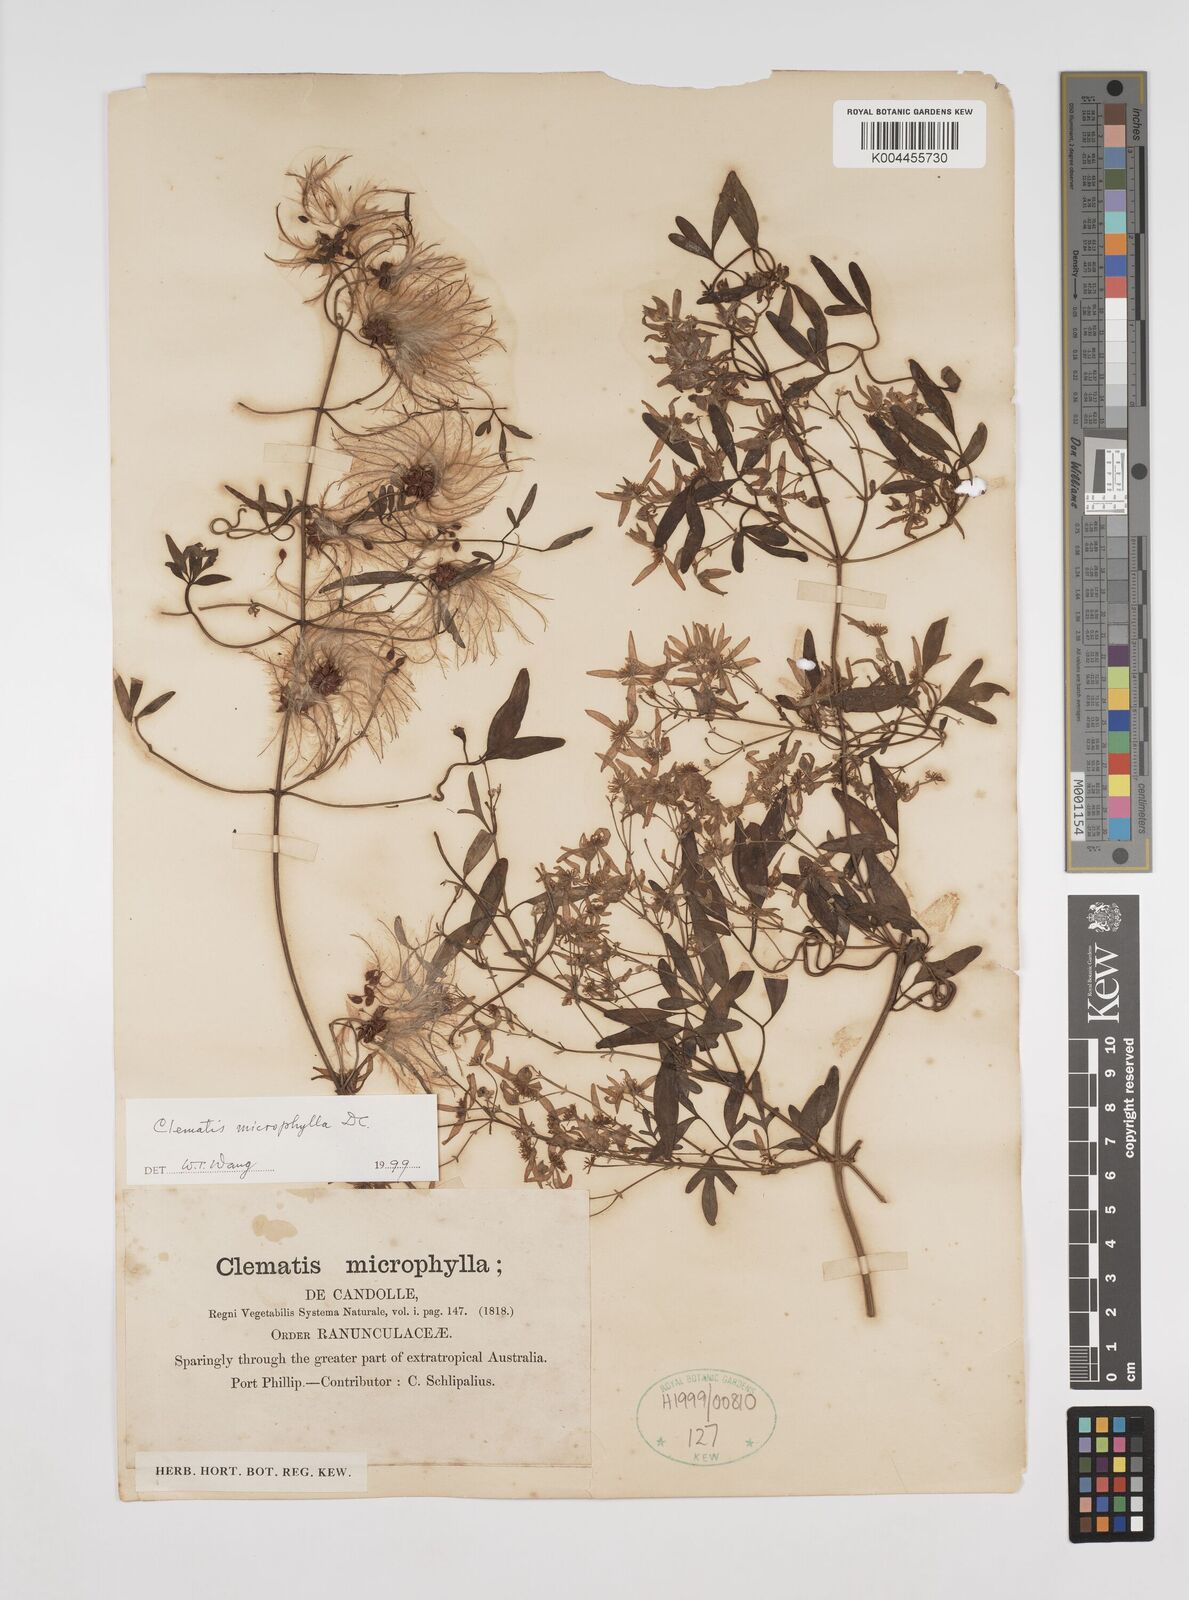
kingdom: Plantae
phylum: Tracheophyta
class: Magnoliopsida
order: Ranunculales
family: Ranunculaceae
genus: Clematis
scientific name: Clematis microphylla
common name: Headachevine
